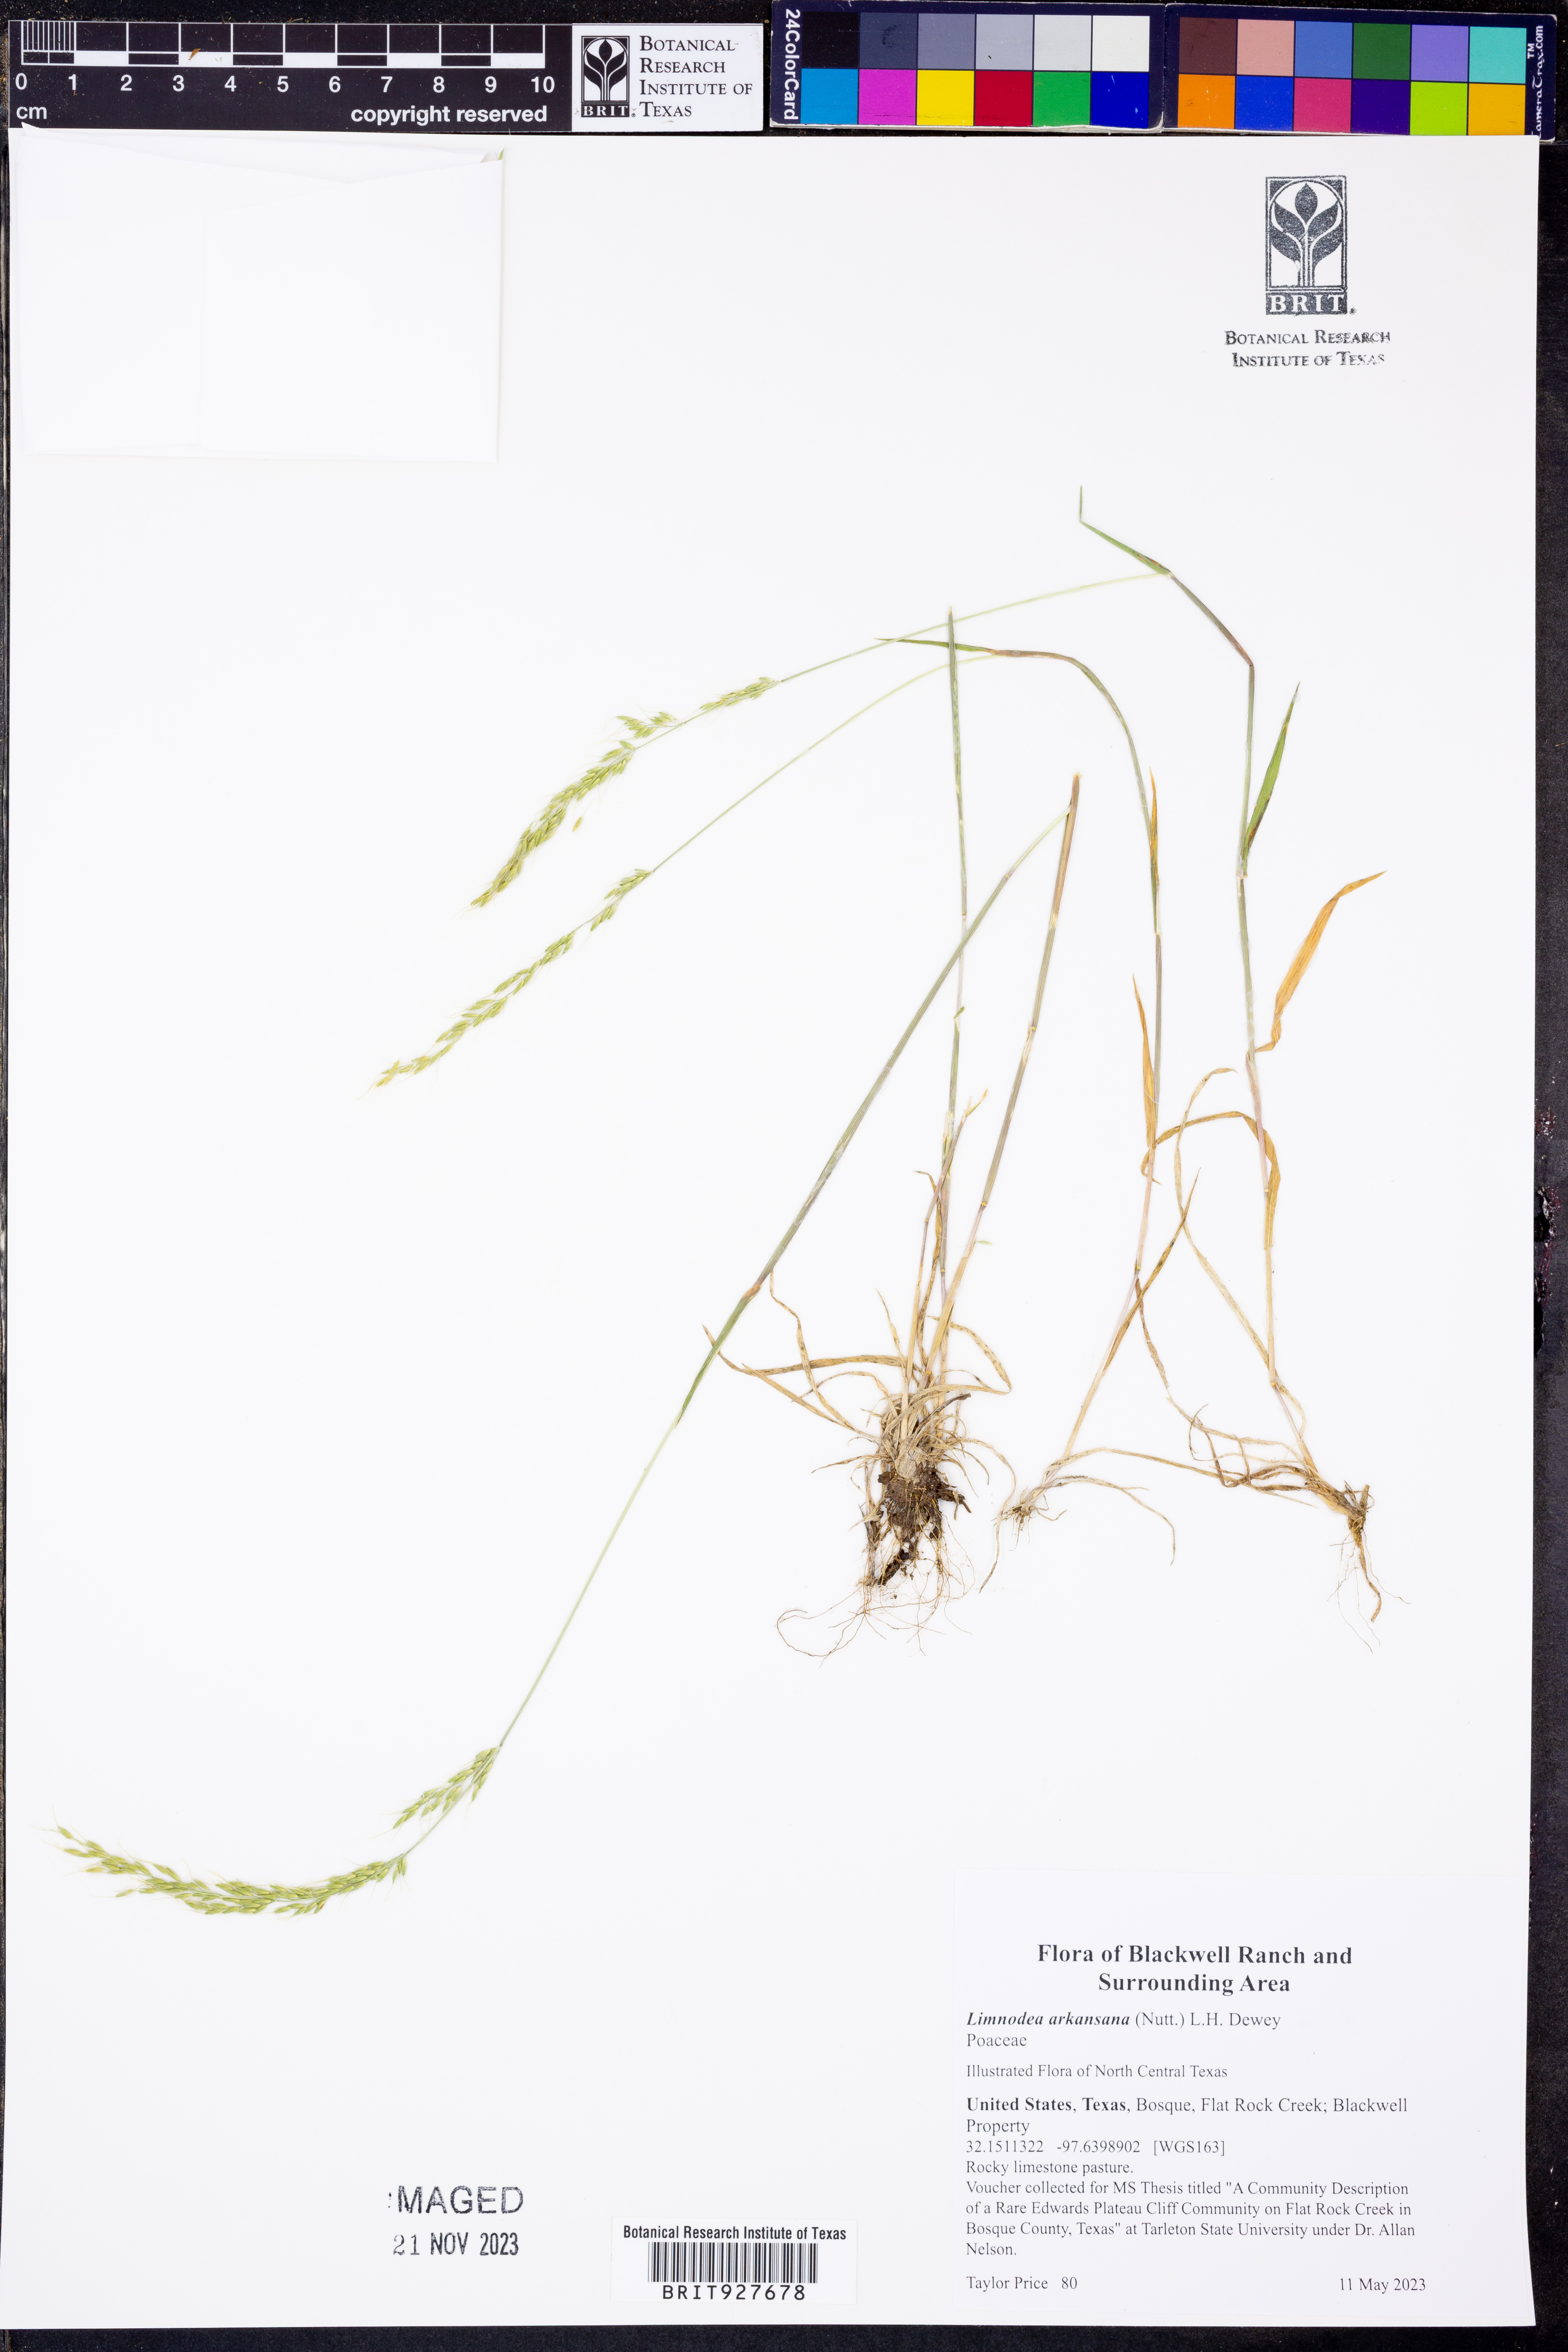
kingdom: Plantae
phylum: Tracheophyta
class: Liliopsida
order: Poales
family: Poaceae
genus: Limnodea
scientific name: Limnodea arkansana
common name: Ozark-grass
